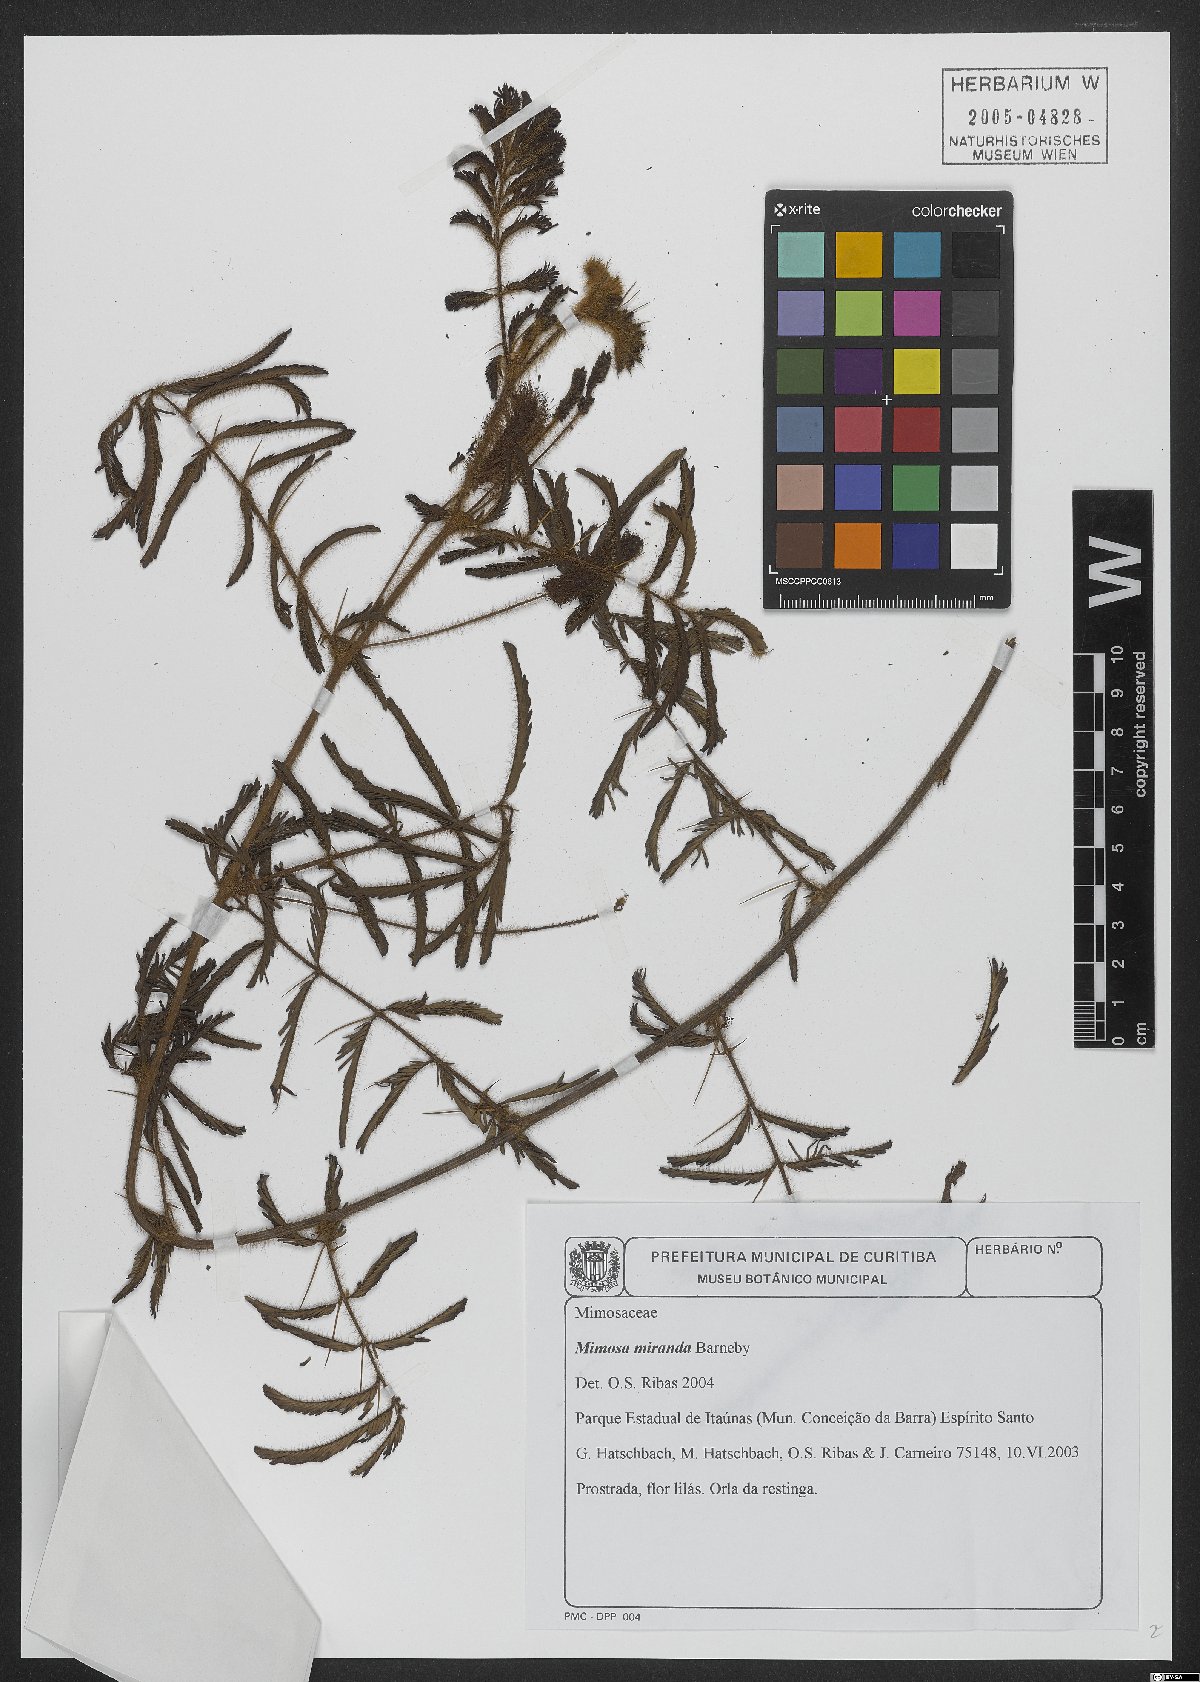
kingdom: Plantae
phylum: Tracheophyta
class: Magnoliopsida
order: Fabales
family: Fabaceae
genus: Mimosa
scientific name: Mimosa miranda
